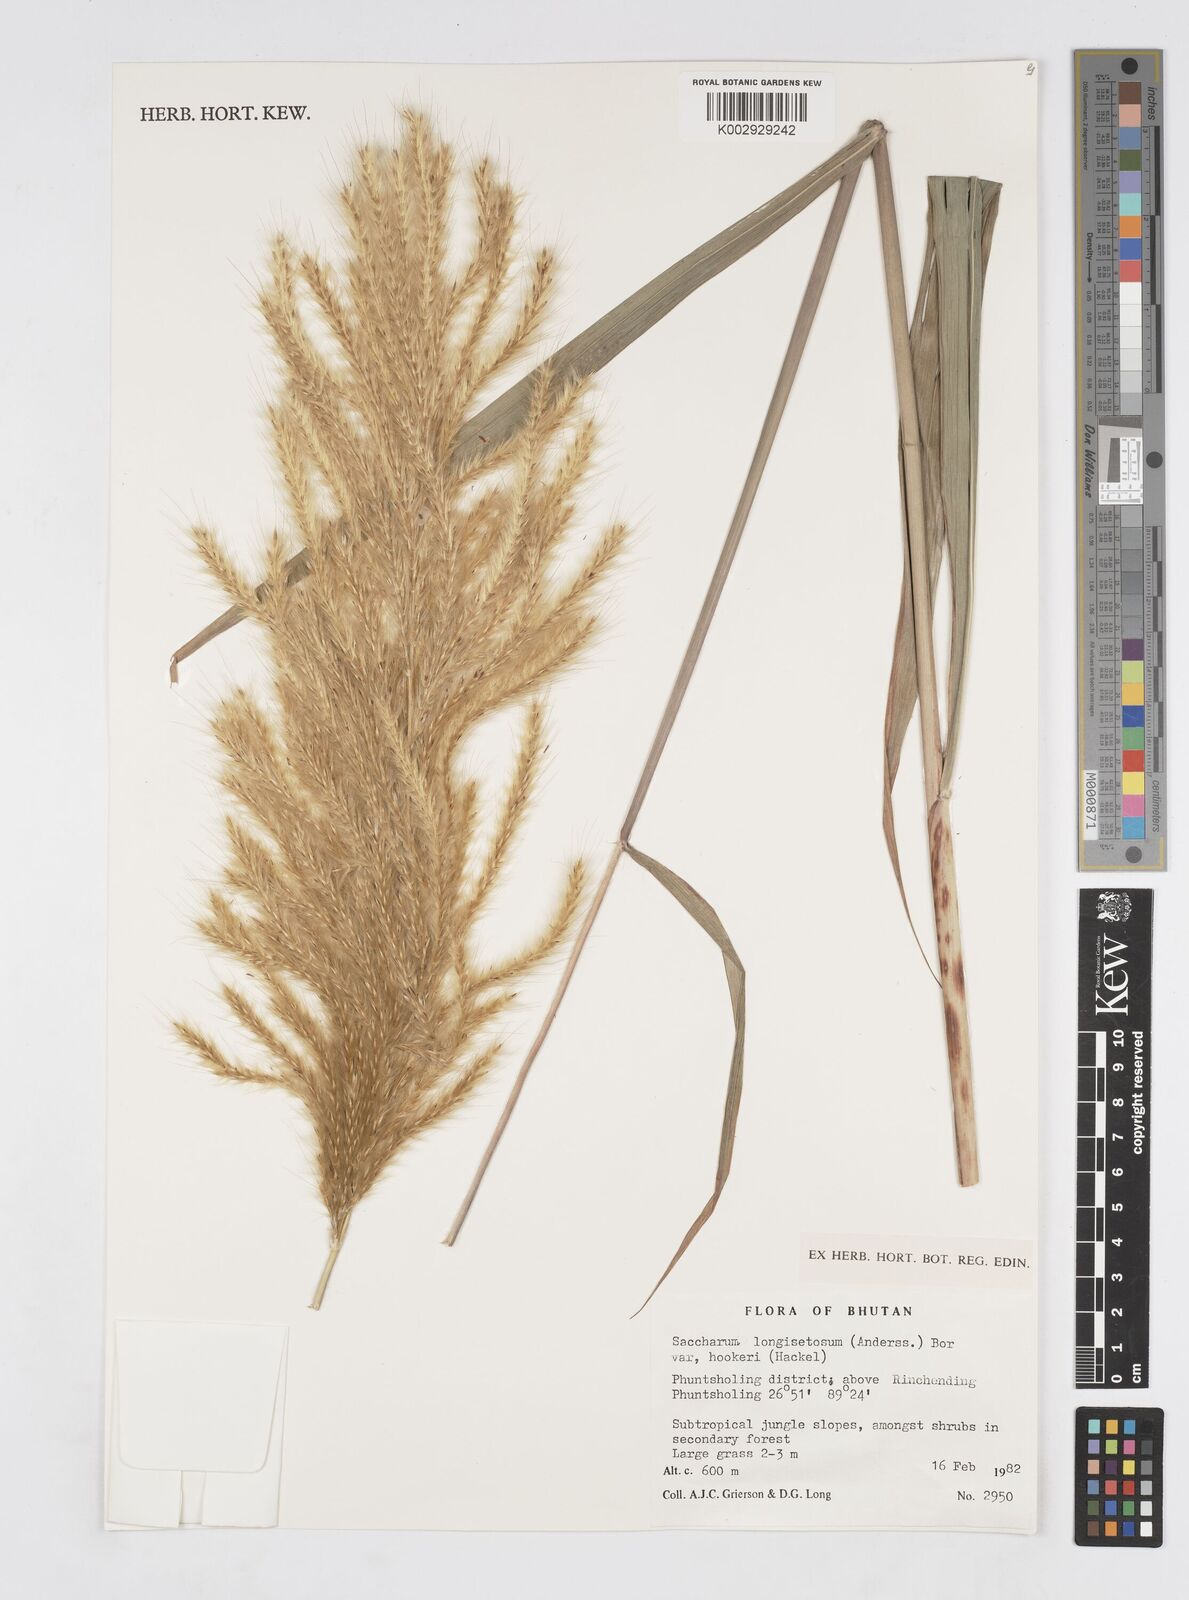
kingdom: Plantae
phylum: Tracheophyta
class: Liliopsida
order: Poales
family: Poaceae
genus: Saccharum
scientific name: Saccharum longesetosum
